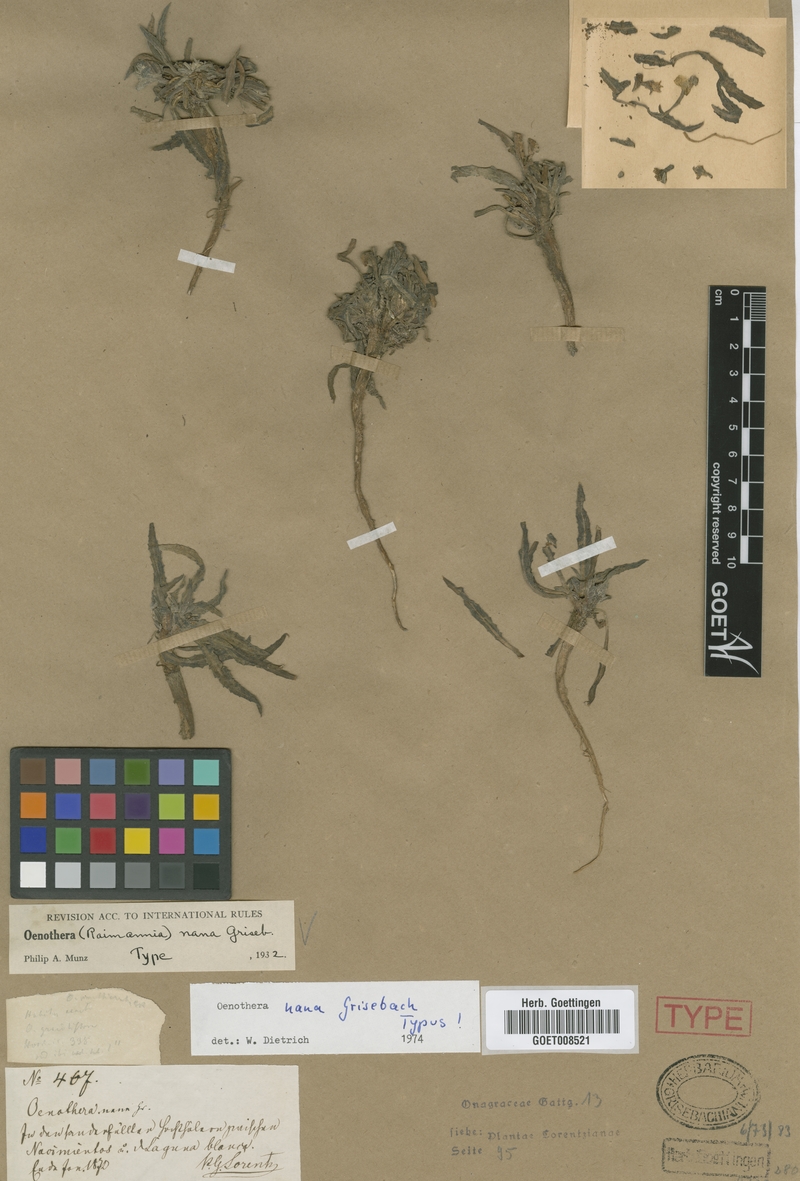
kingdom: Plantae
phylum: Tracheophyta
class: Magnoliopsida
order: Myrtales
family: Onagraceae
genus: Oenothera
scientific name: Oenothera nana
